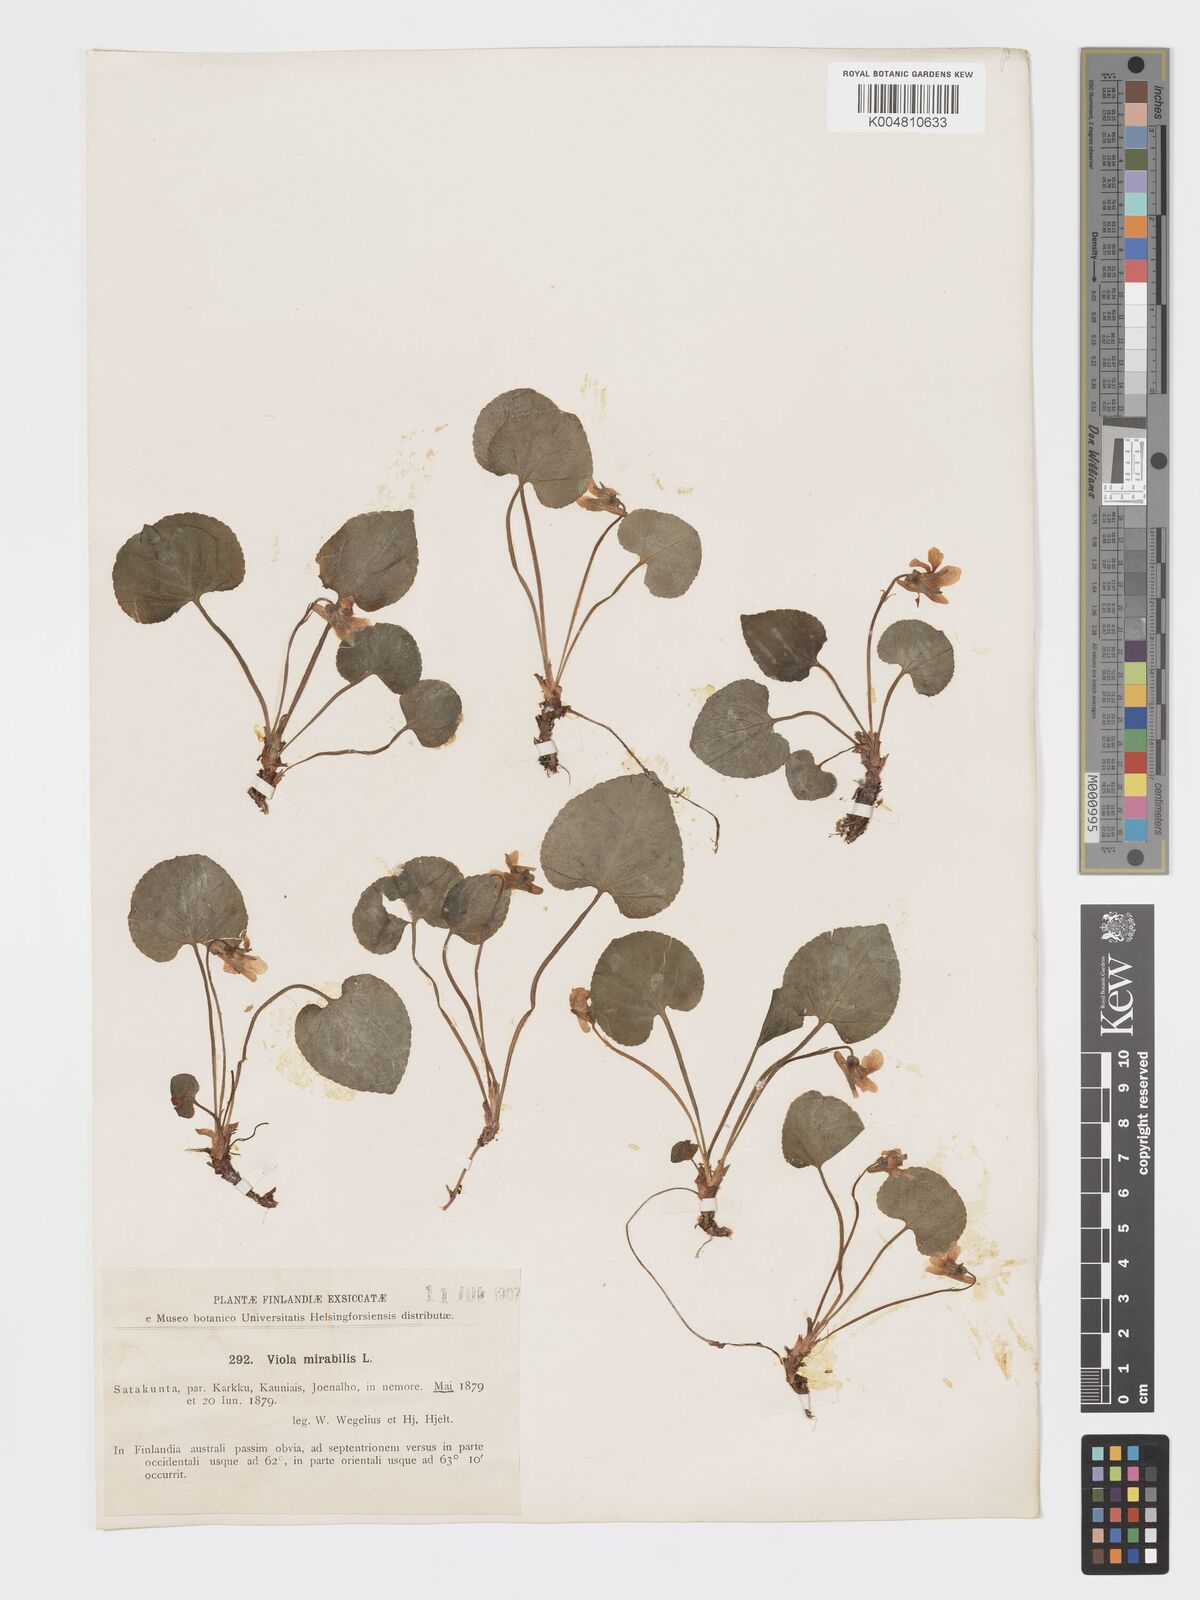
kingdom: Plantae
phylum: Tracheophyta
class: Magnoliopsida
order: Malpighiales
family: Violaceae
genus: Viola
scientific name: Viola mirabilis
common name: Wonder violet
